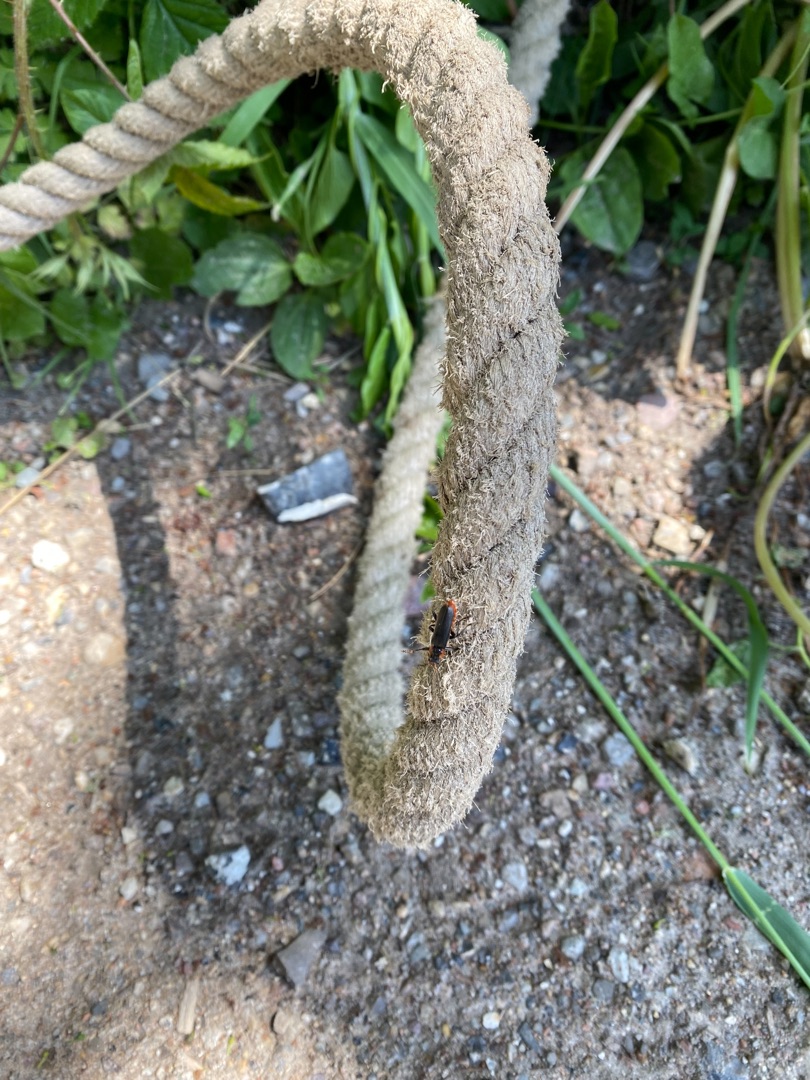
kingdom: Animalia
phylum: Arthropoda
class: Insecta
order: Coleoptera
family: Cantharidae
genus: Cantharis
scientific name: Cantharis fusca
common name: Stor blødvinge
